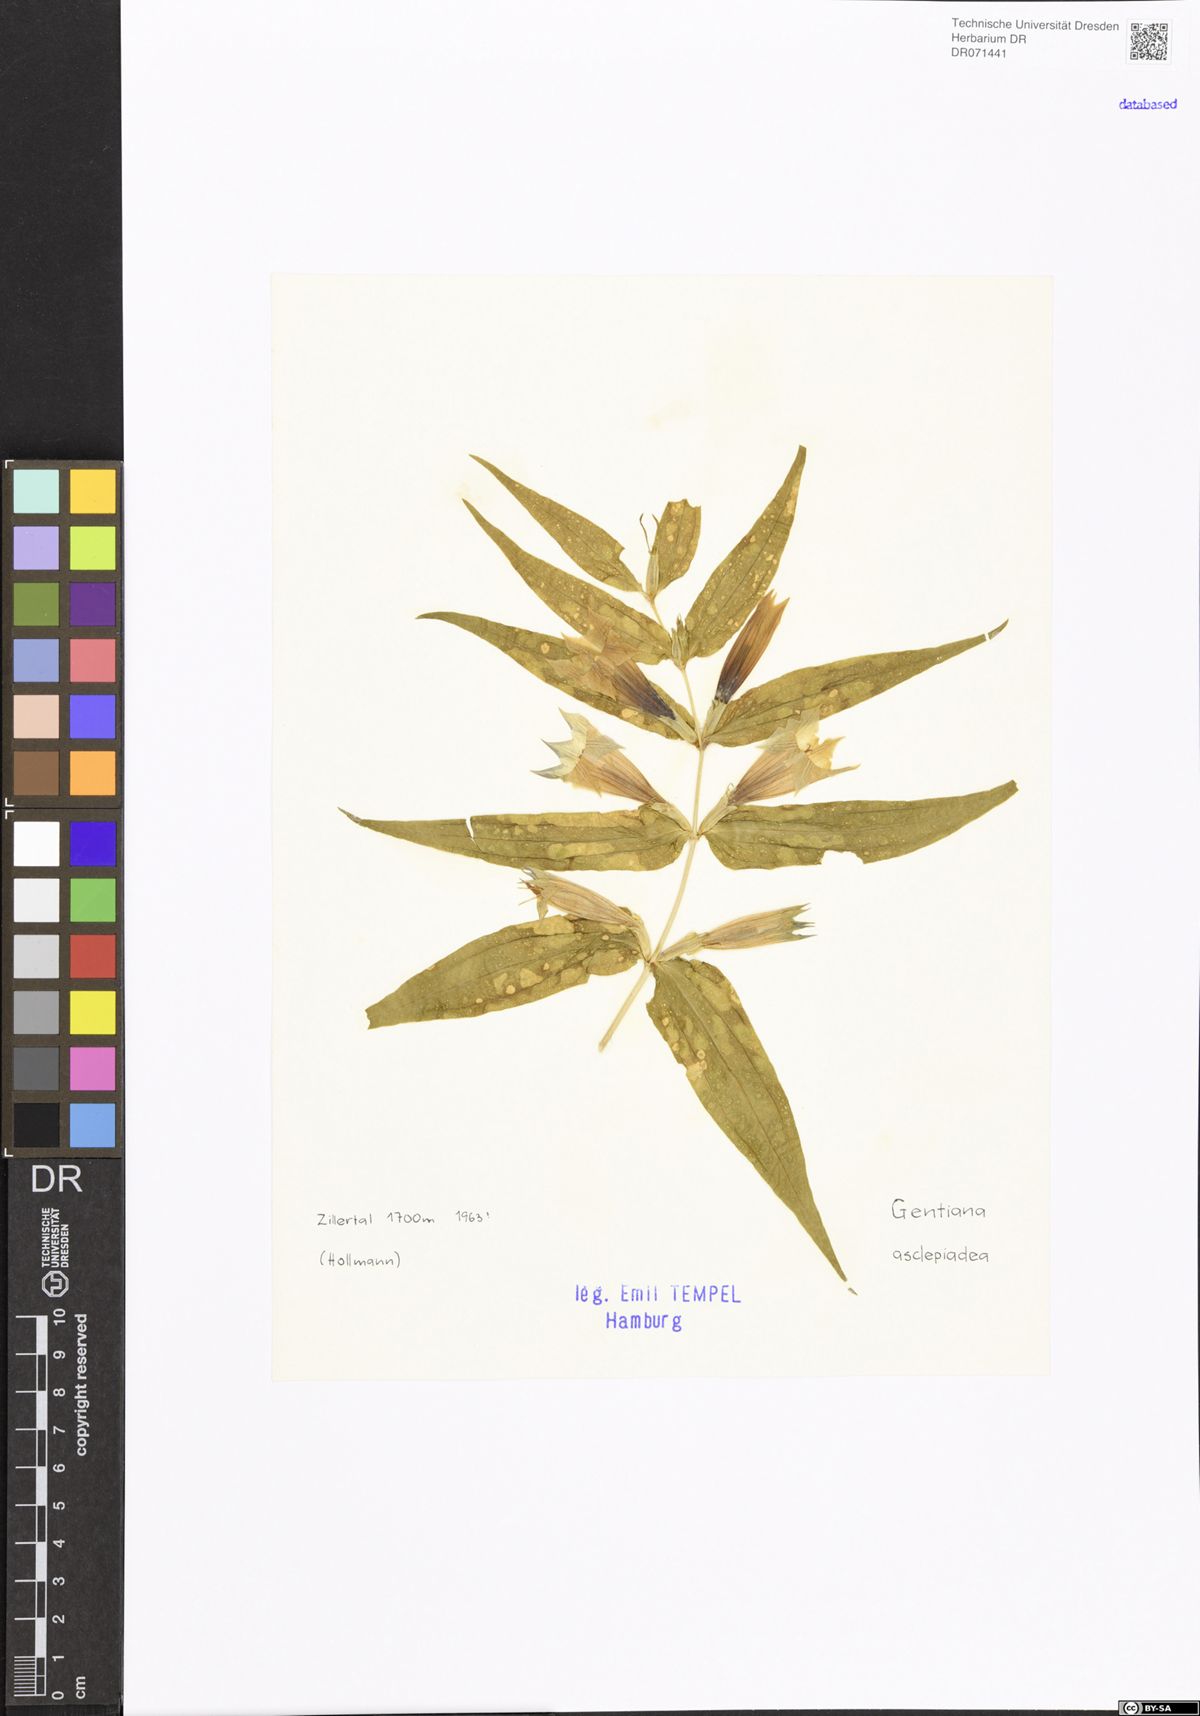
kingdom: Plantae
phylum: Tracheophyta
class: Magnoliopsida
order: Gentianales
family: Gentianaceae
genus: Gentiana
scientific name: Gentiana asclepiadea
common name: Willow gentian
